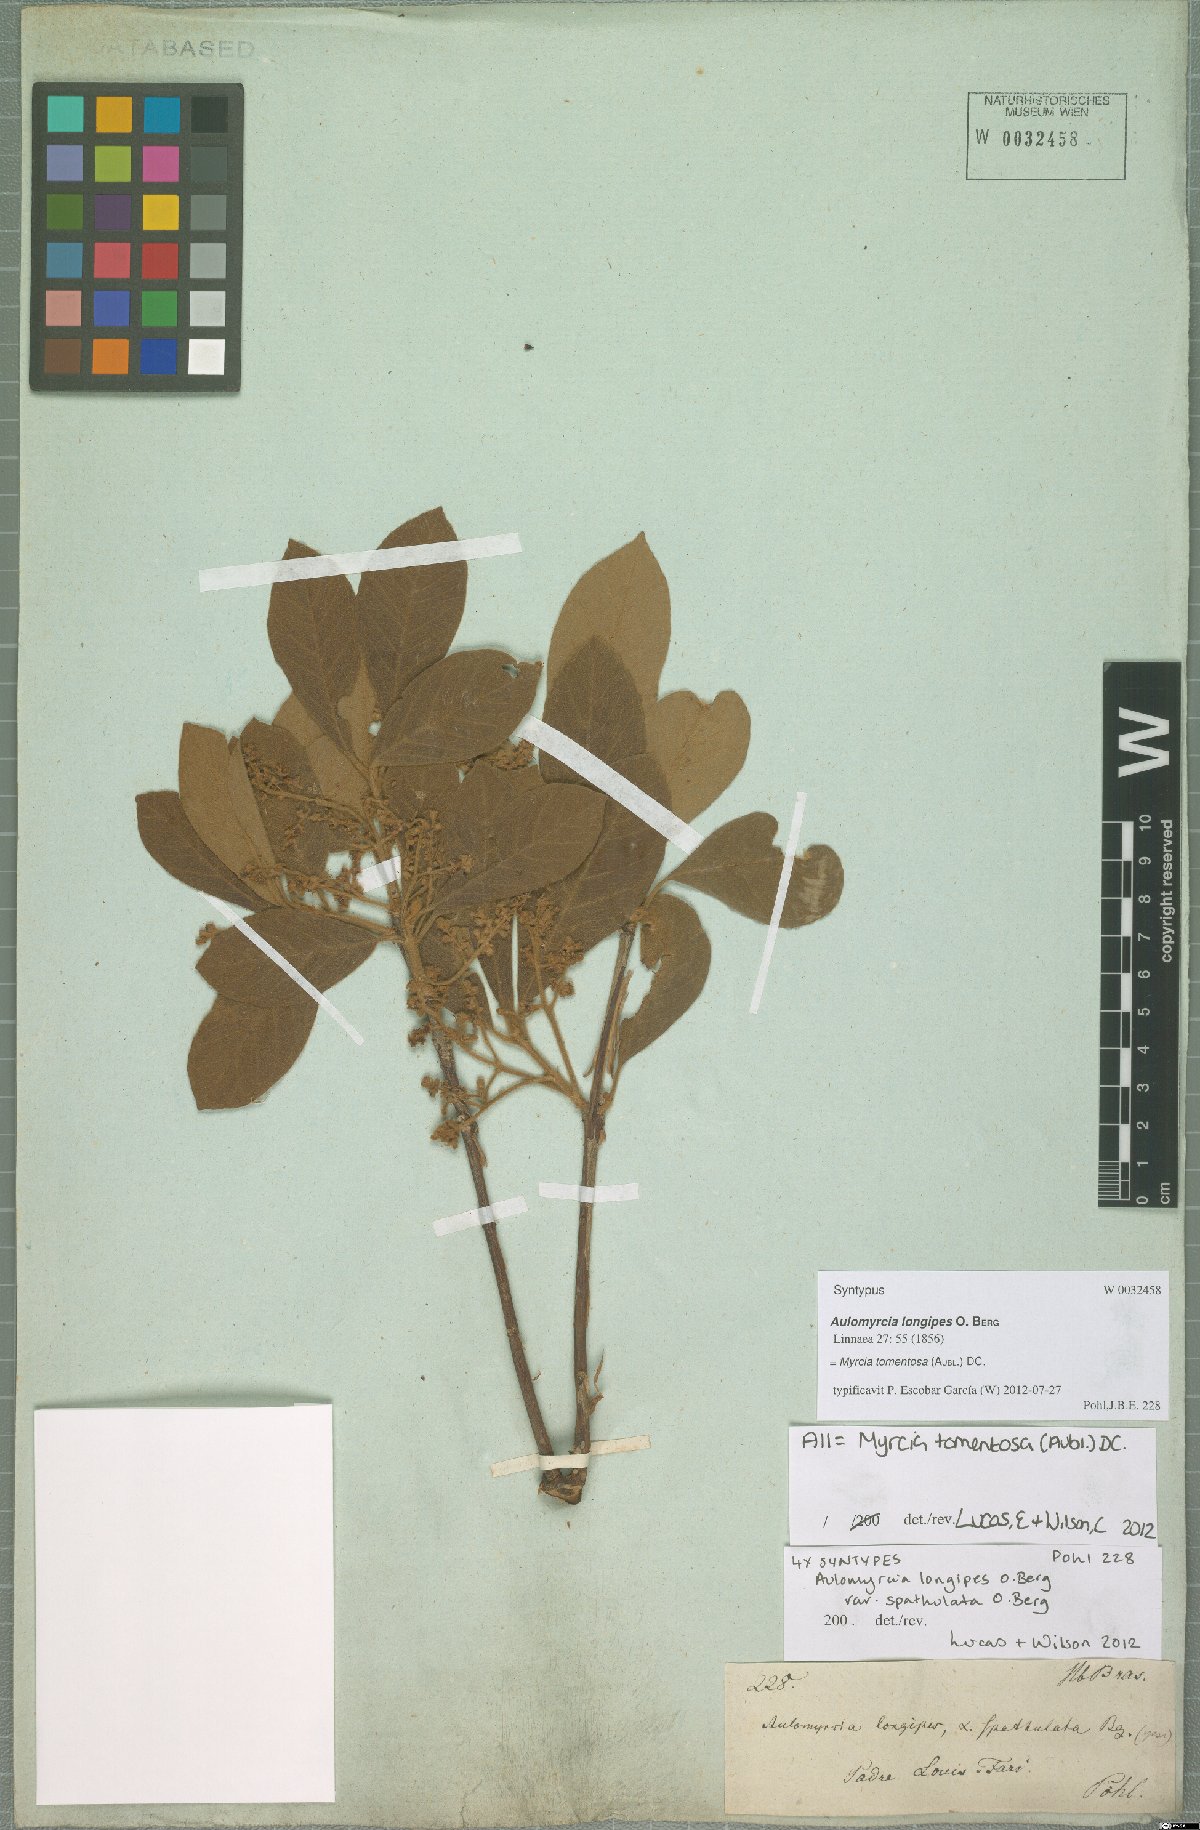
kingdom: Plantae
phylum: Tracheophyta
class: Magnoliopsida
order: Myrtales
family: Myrtaceae
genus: Myrcia
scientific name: Myrcia tomentosa
